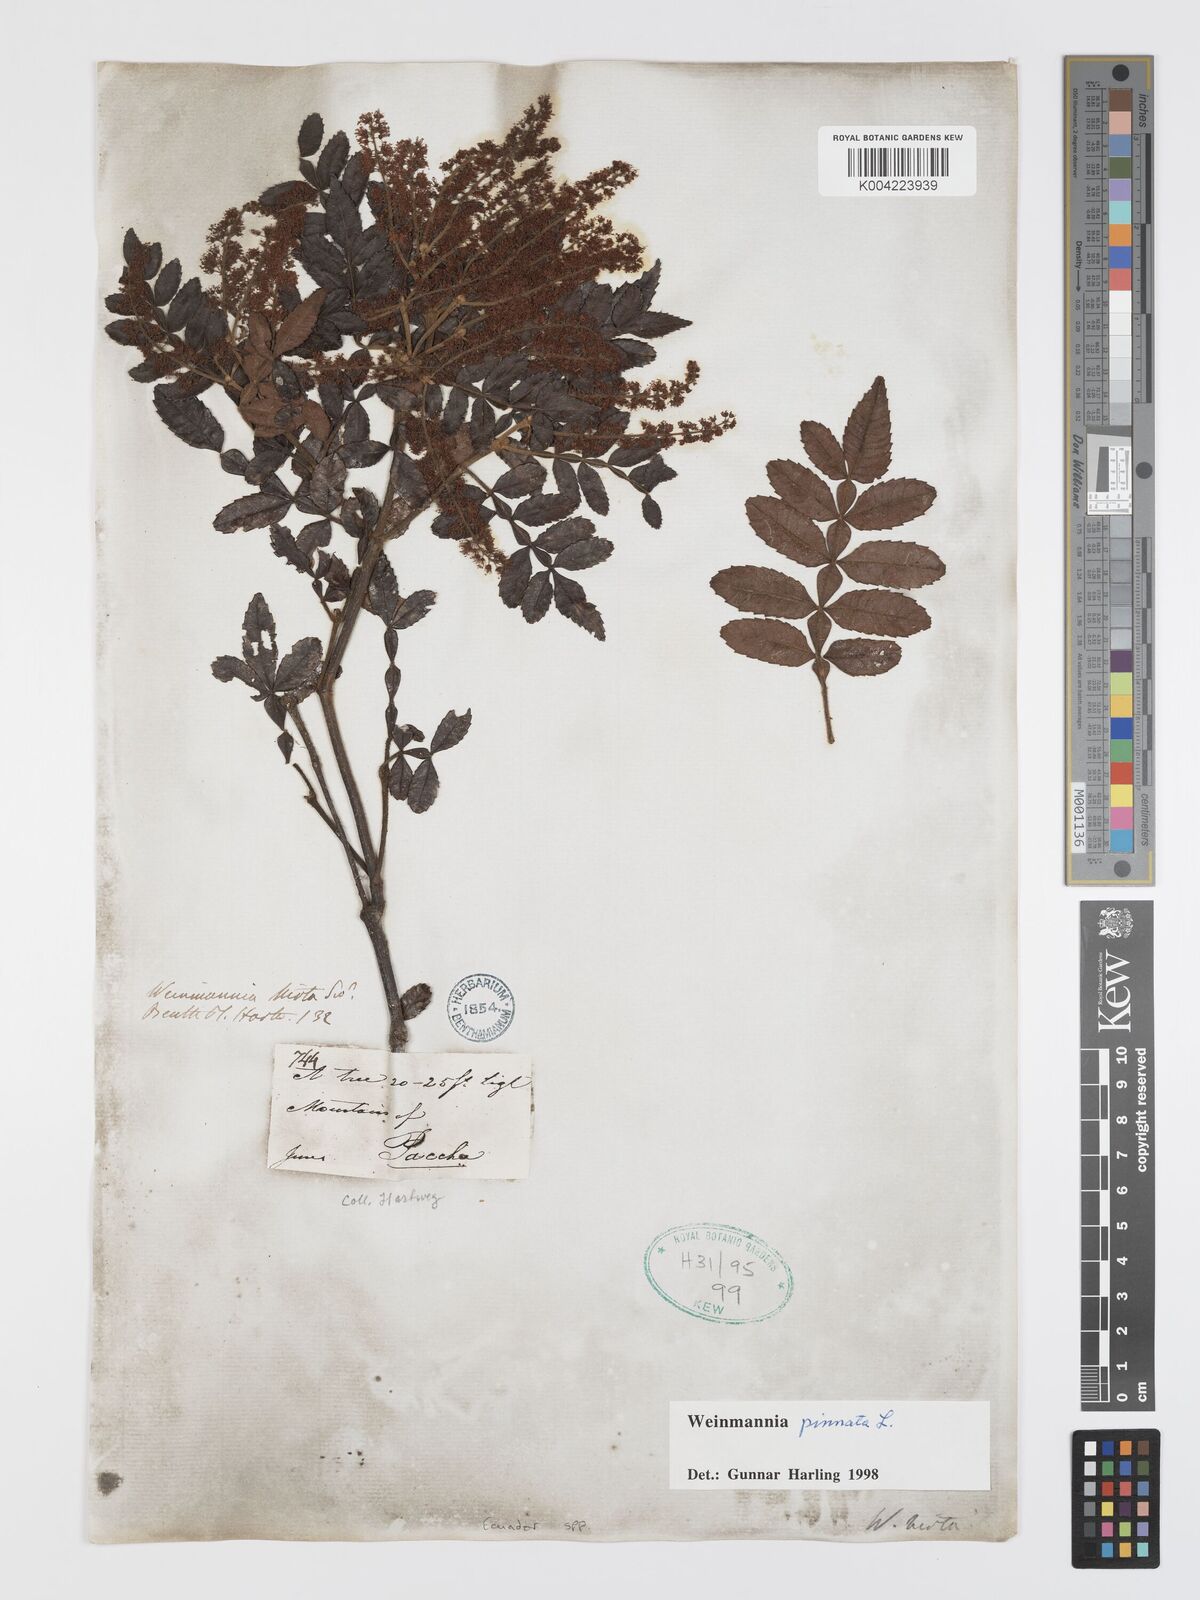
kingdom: Plantae
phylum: Tracheophyta
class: Magnoliopsida
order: Oxalidales
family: Cunoniaceae
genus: Weinmannia
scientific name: Weinmannia pinnata
